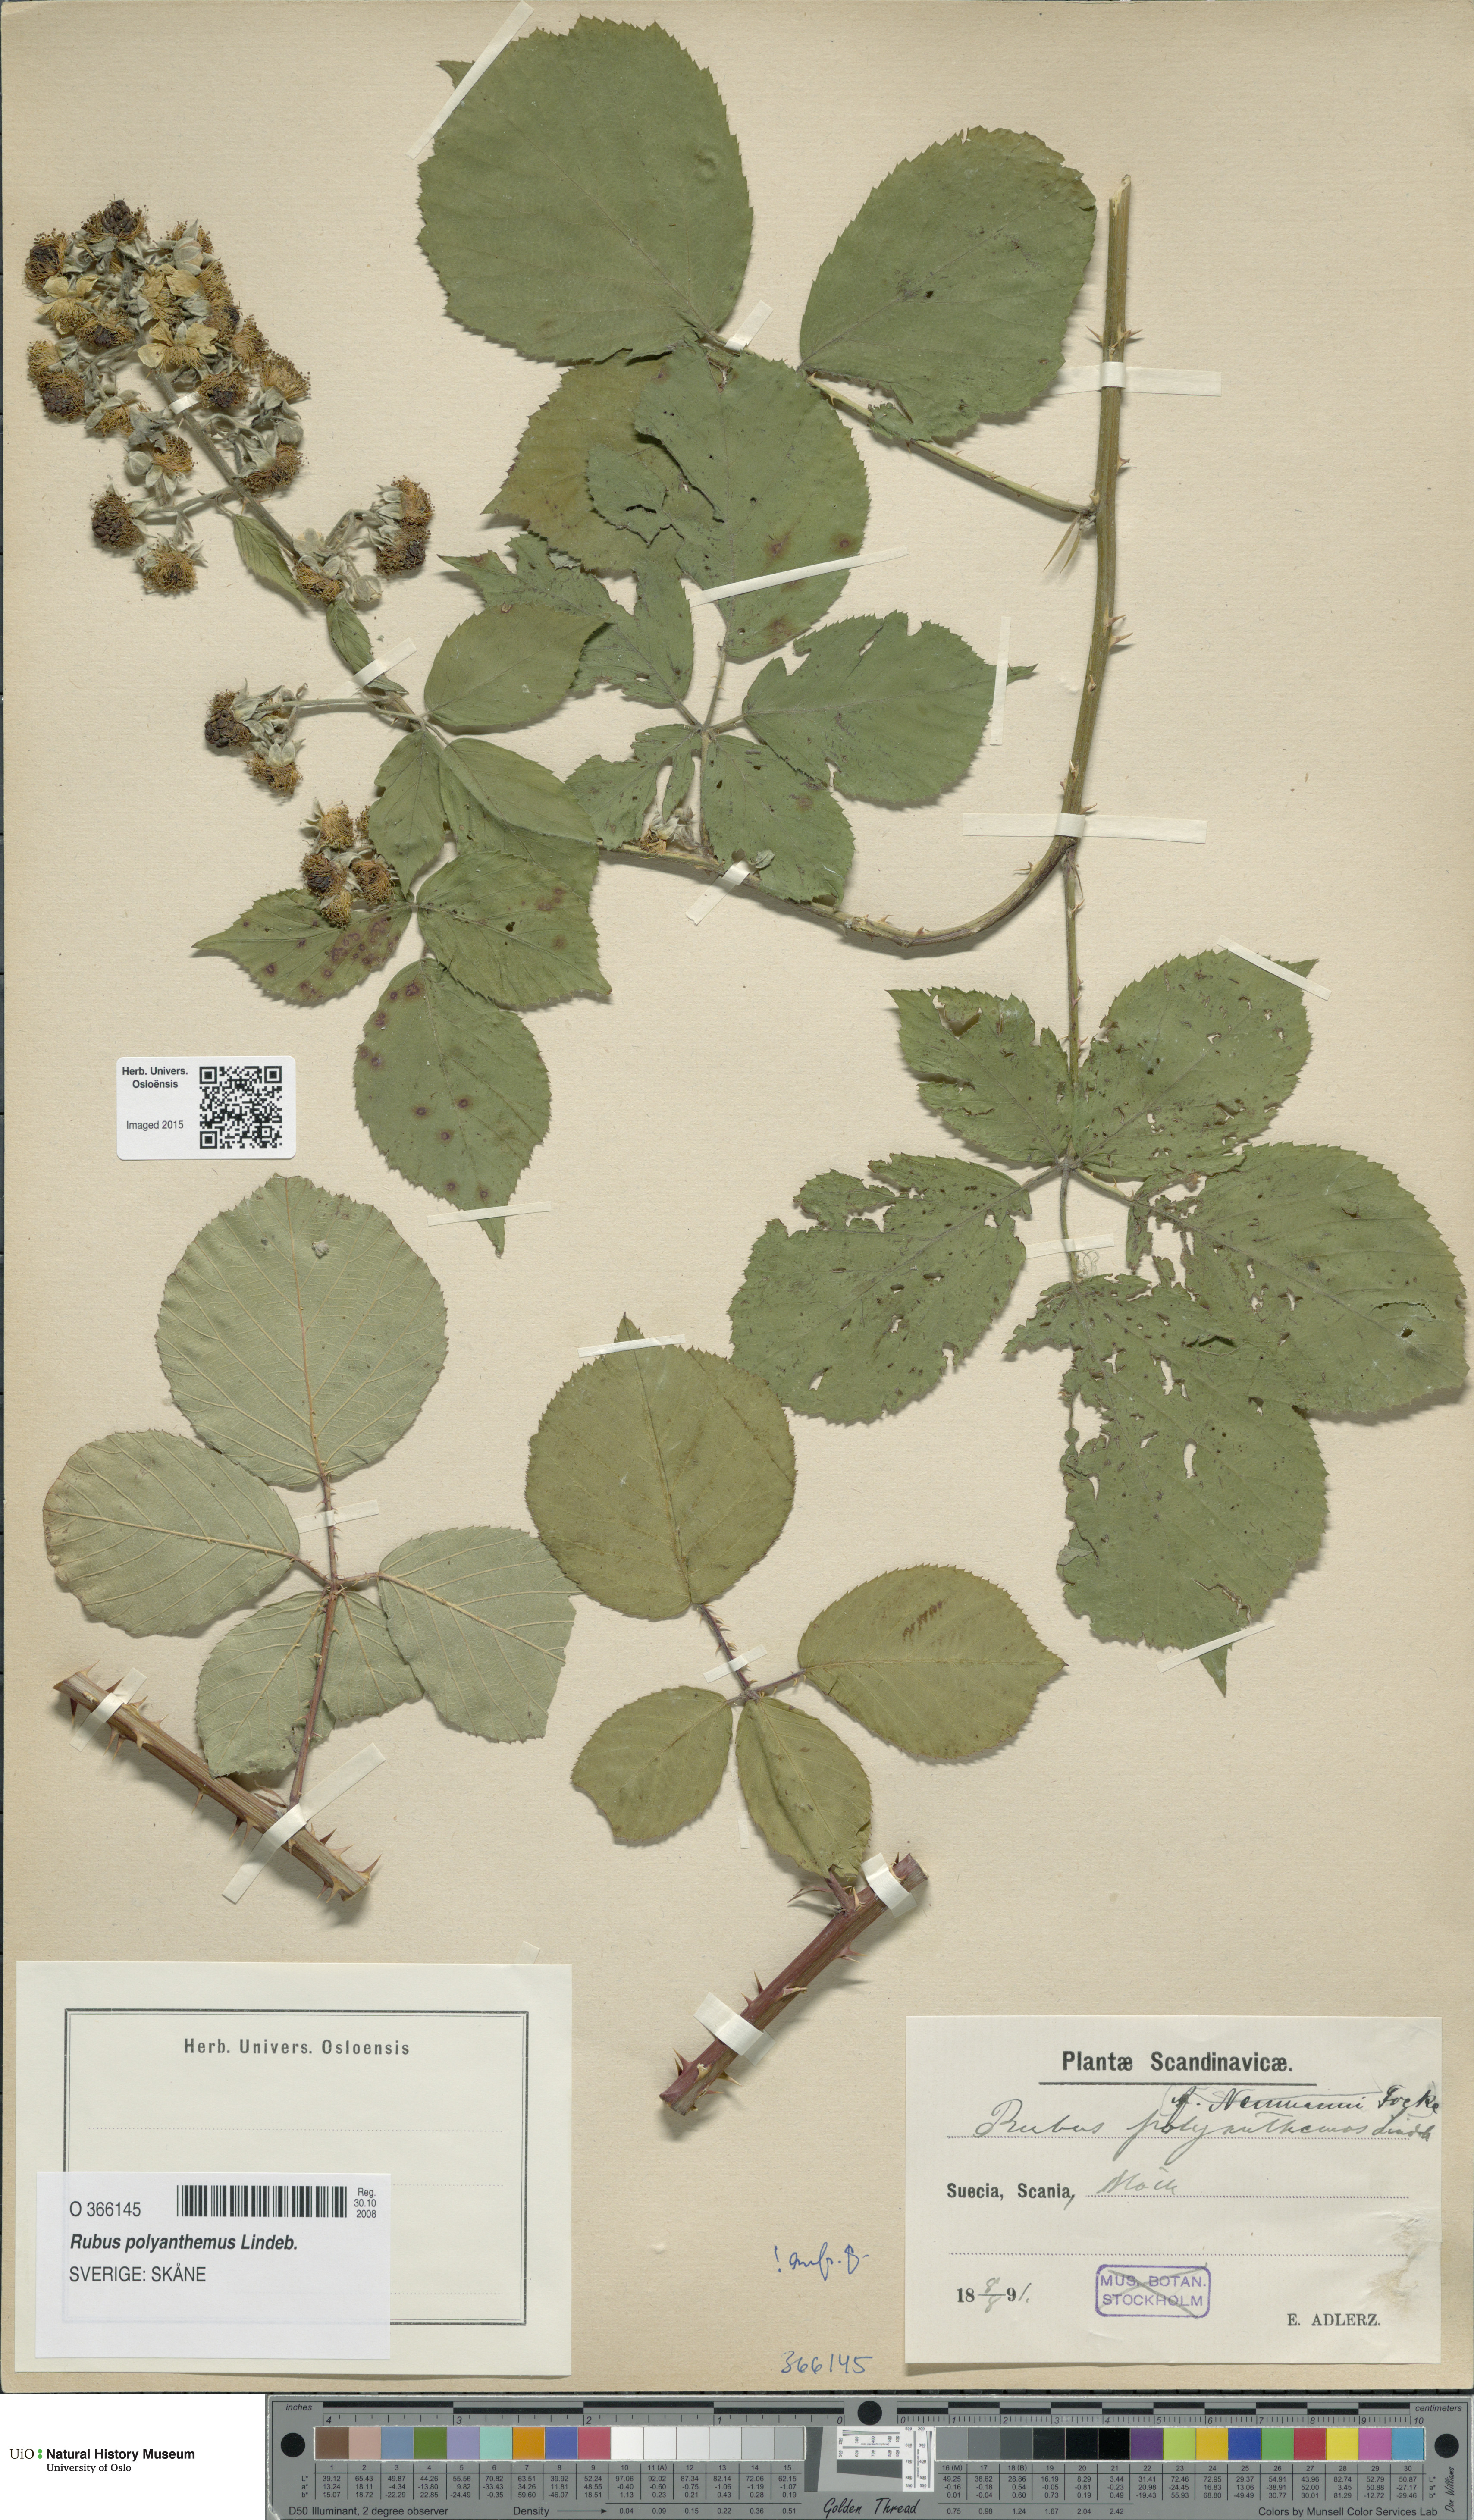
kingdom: Plantae
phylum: Tracheophyta
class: Magnoliopsida
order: Rosales
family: Rosaceae
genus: Rubus
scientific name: Rubus polyanthemus
